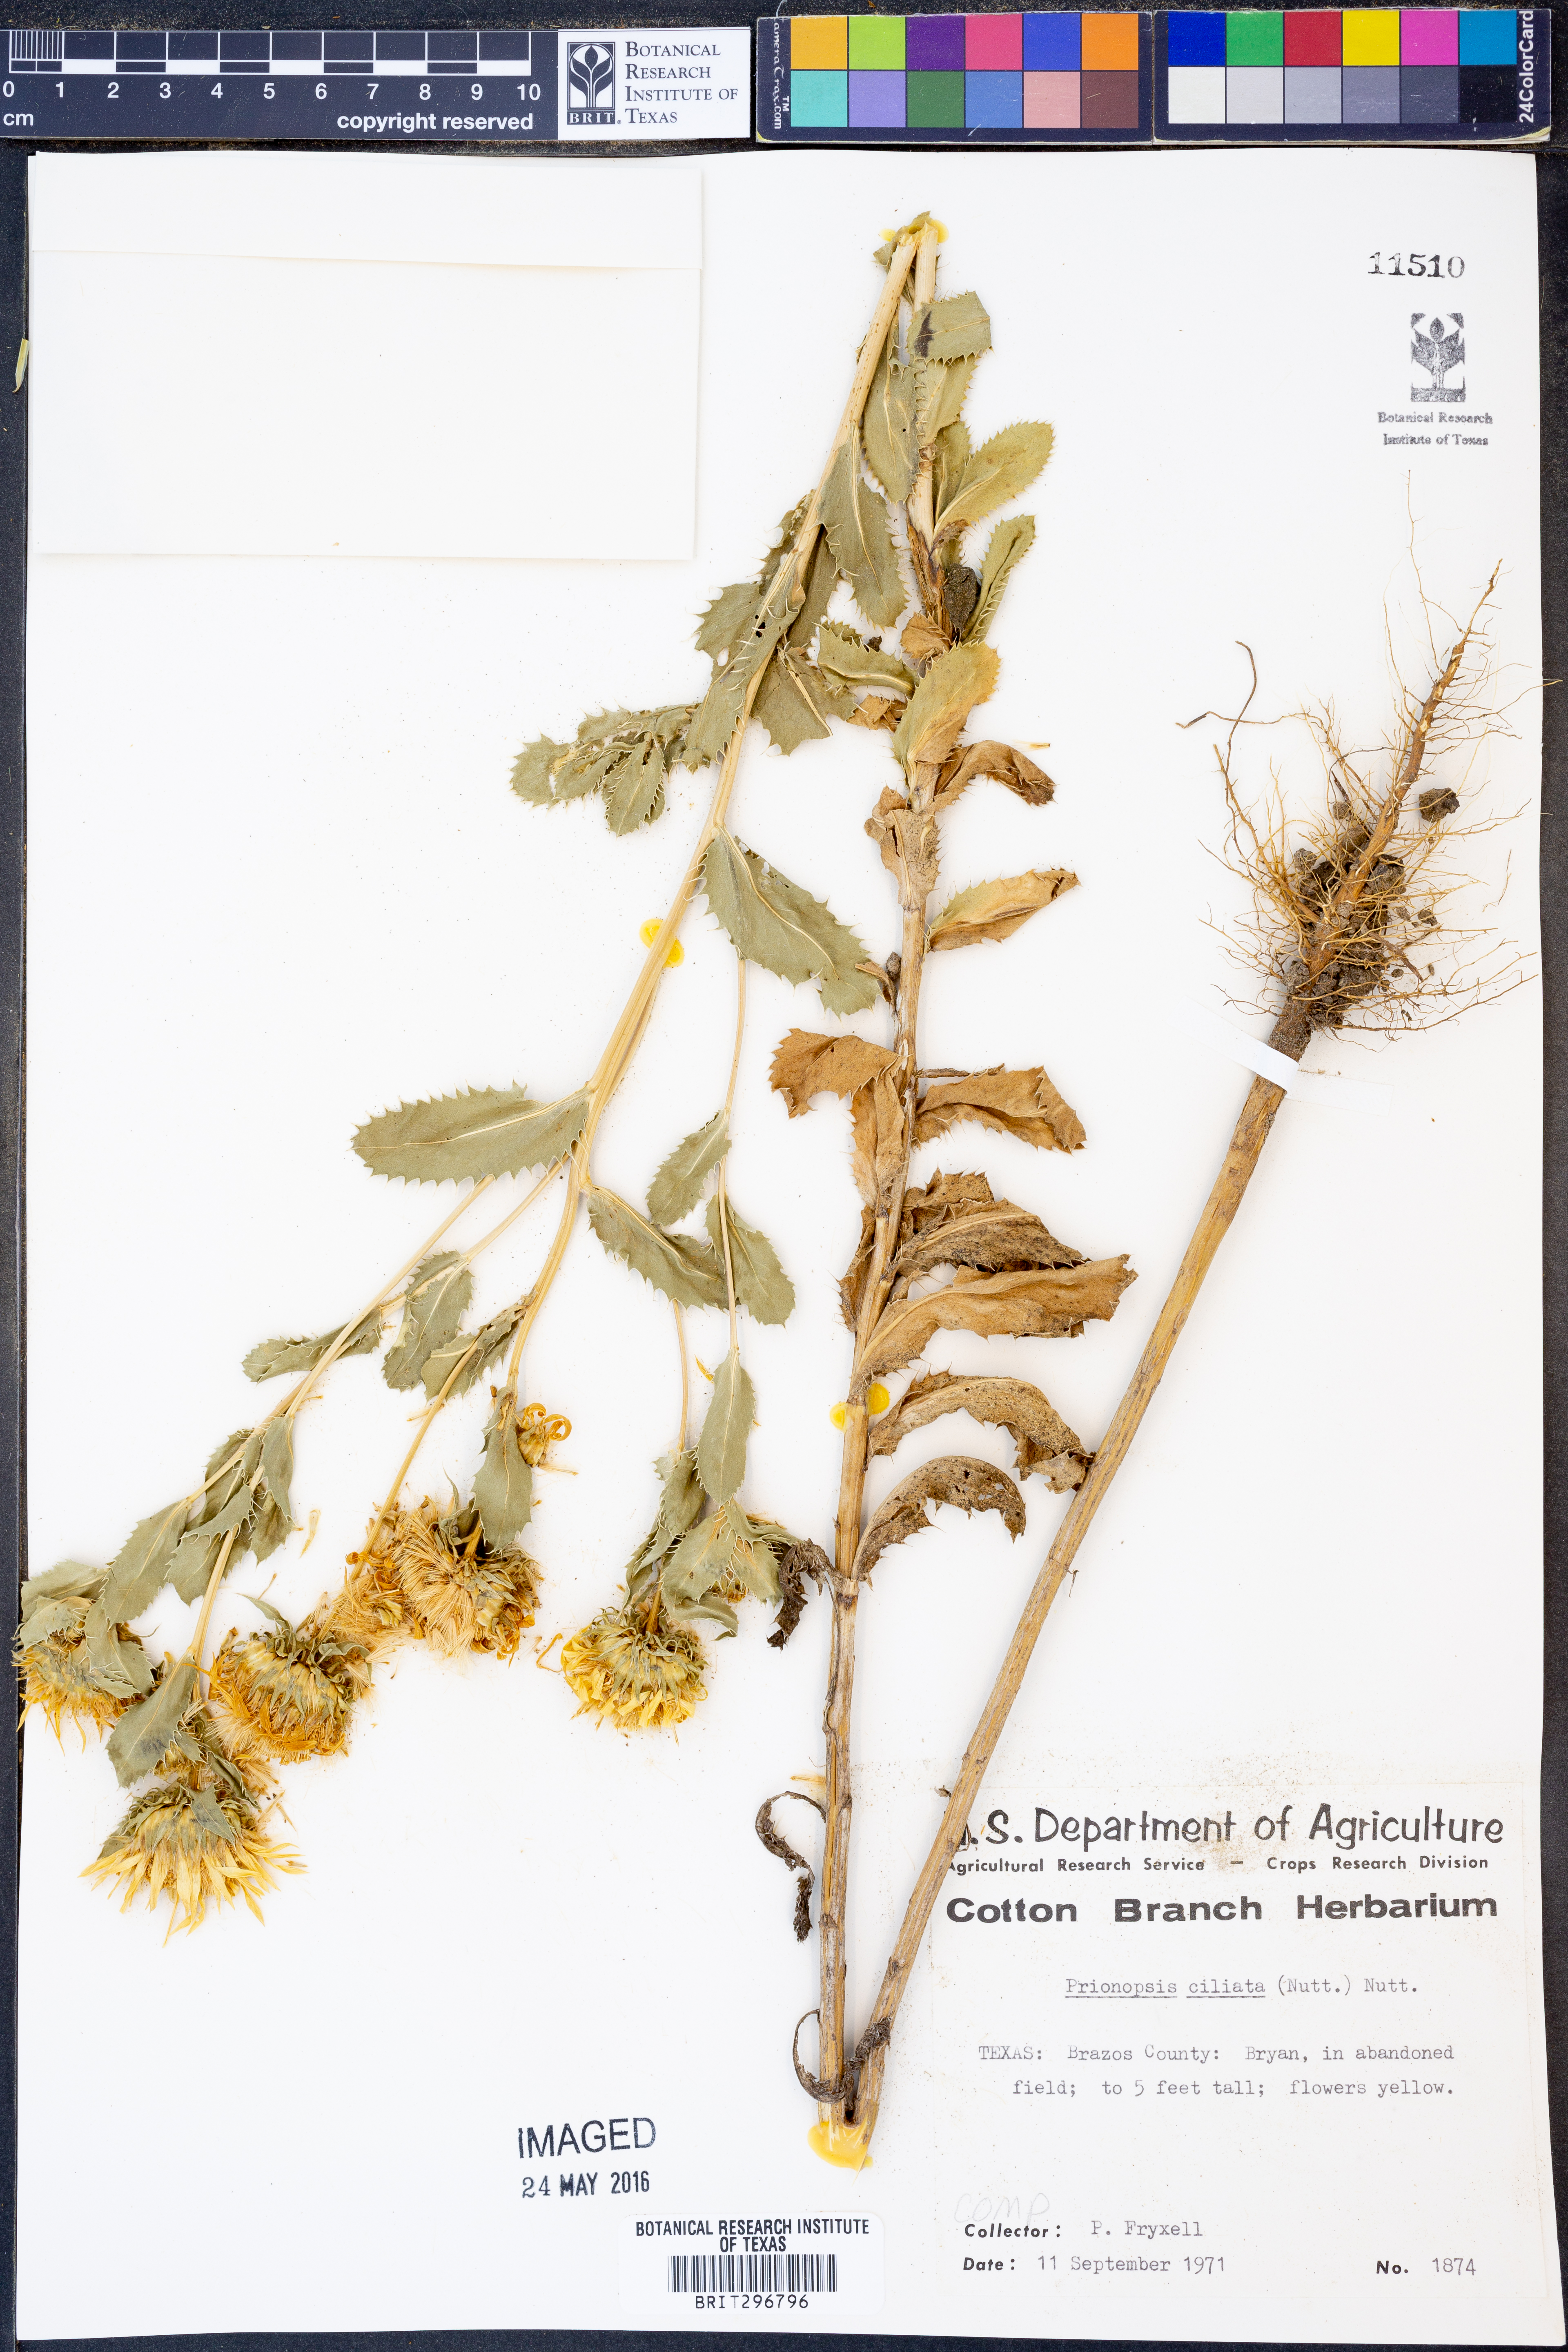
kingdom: Plantae
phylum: Tracheophyta
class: Magnoliopsida
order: Asterales
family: Asteraceae
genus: Grindelia
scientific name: Grindelia ciliata
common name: Goldenweed
